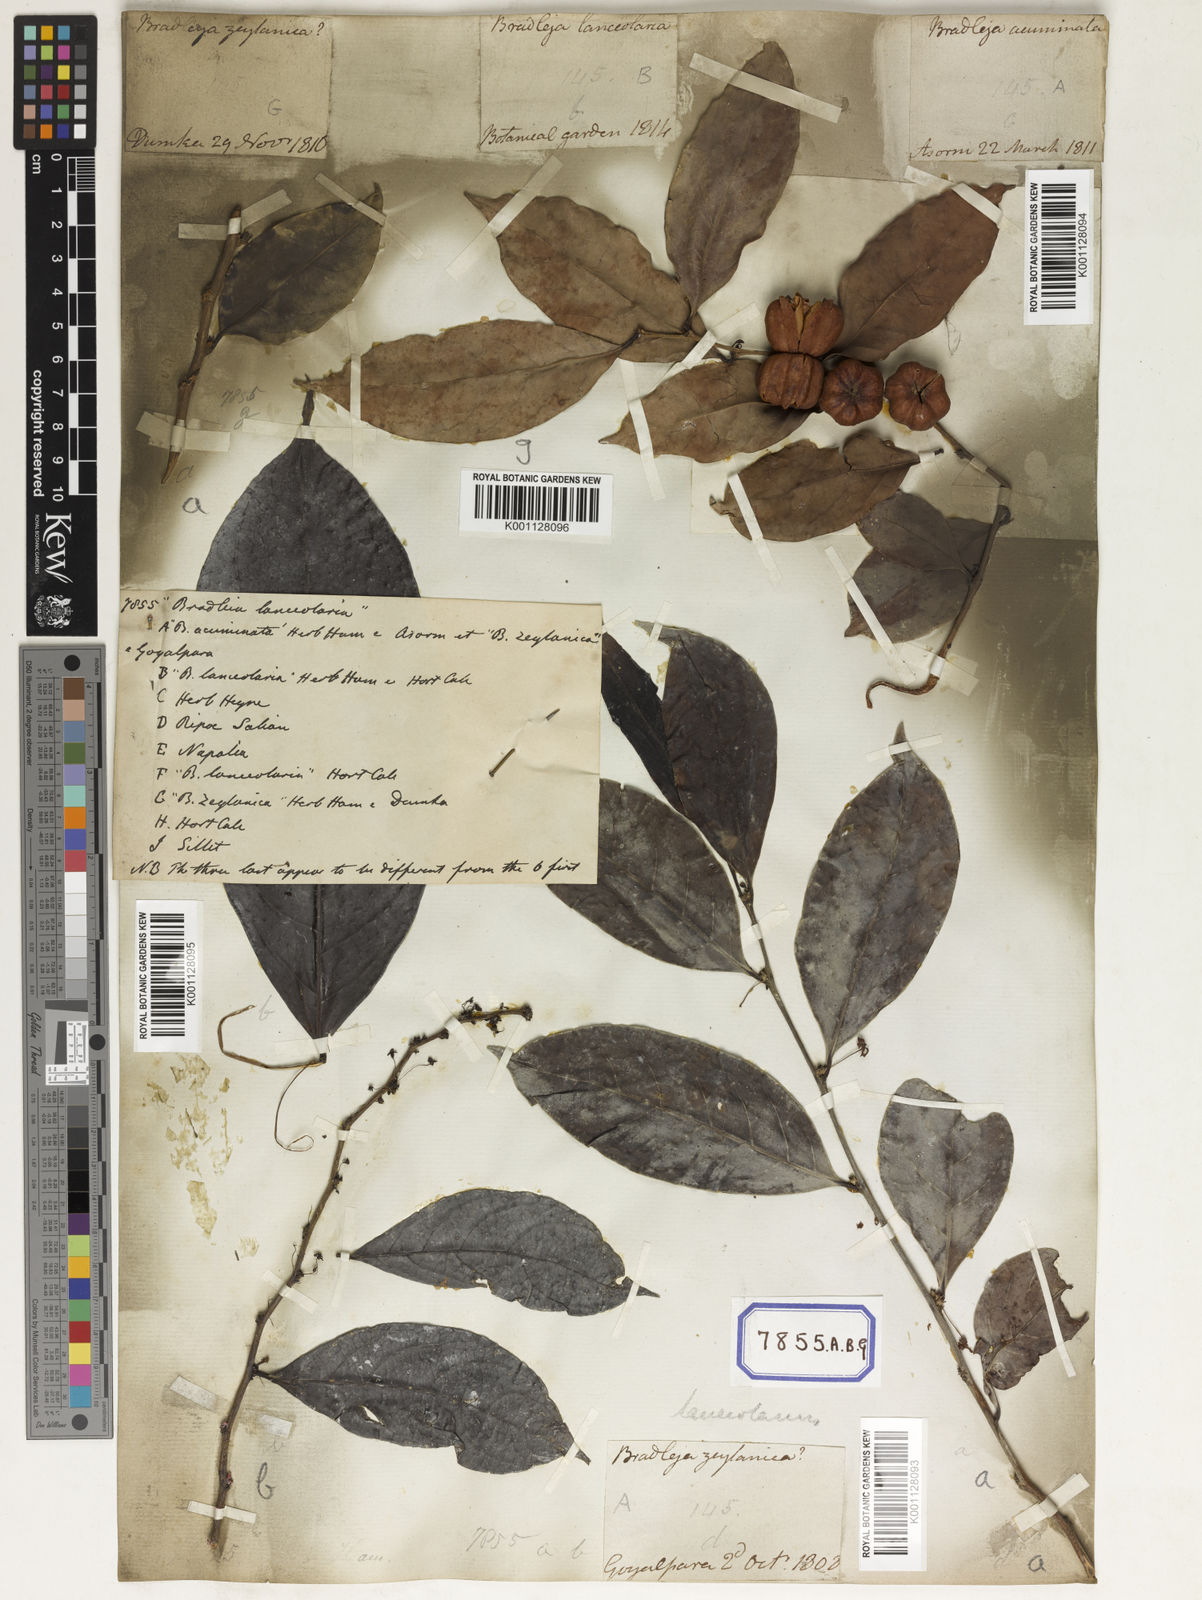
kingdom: Plantae
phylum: Tracheophyta
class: Magnoliopsida
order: Malpighiales
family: Euphorbiaceae
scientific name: Euphorbiaceae
